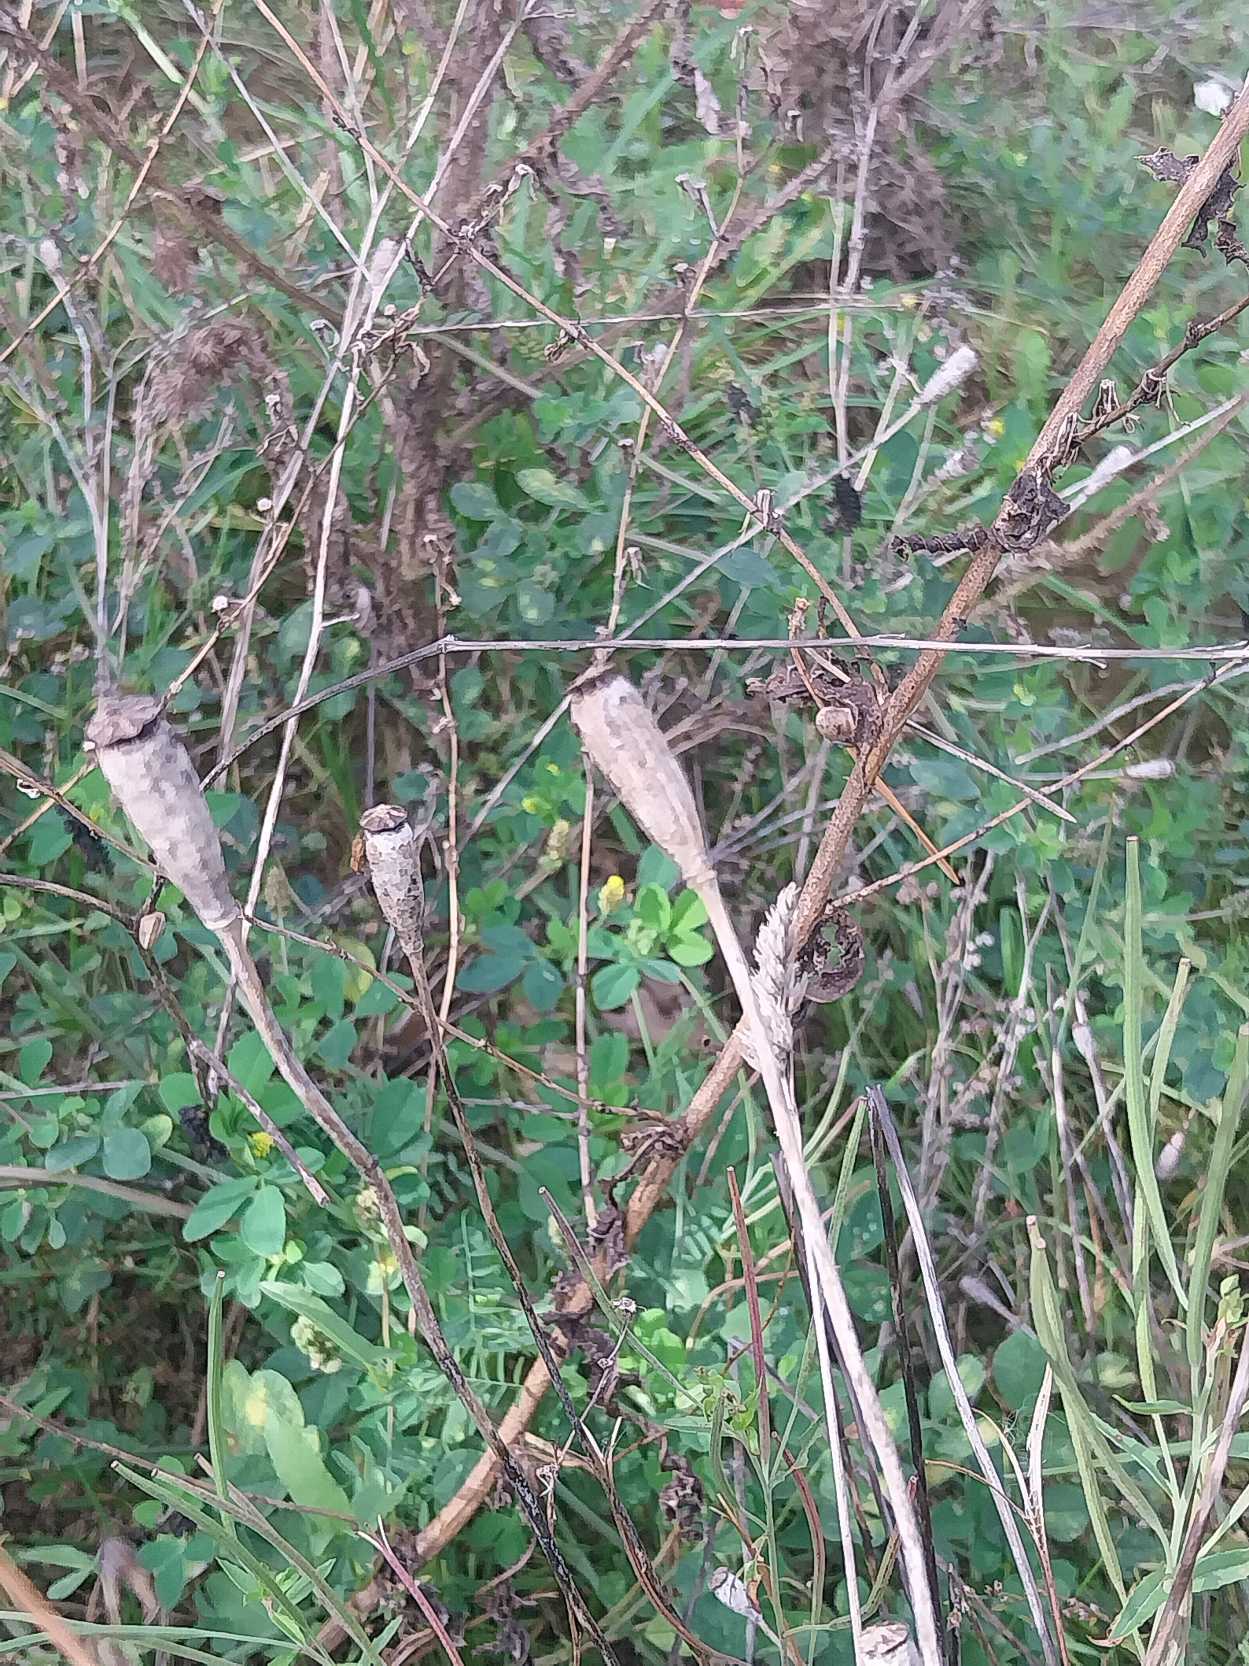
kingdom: Plantae
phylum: Tracheophyta
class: Magnoliopsida
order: Ranunculales
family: Papaveraceae
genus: Papaver
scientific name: Papaver dubium
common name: Gærde-valmue
